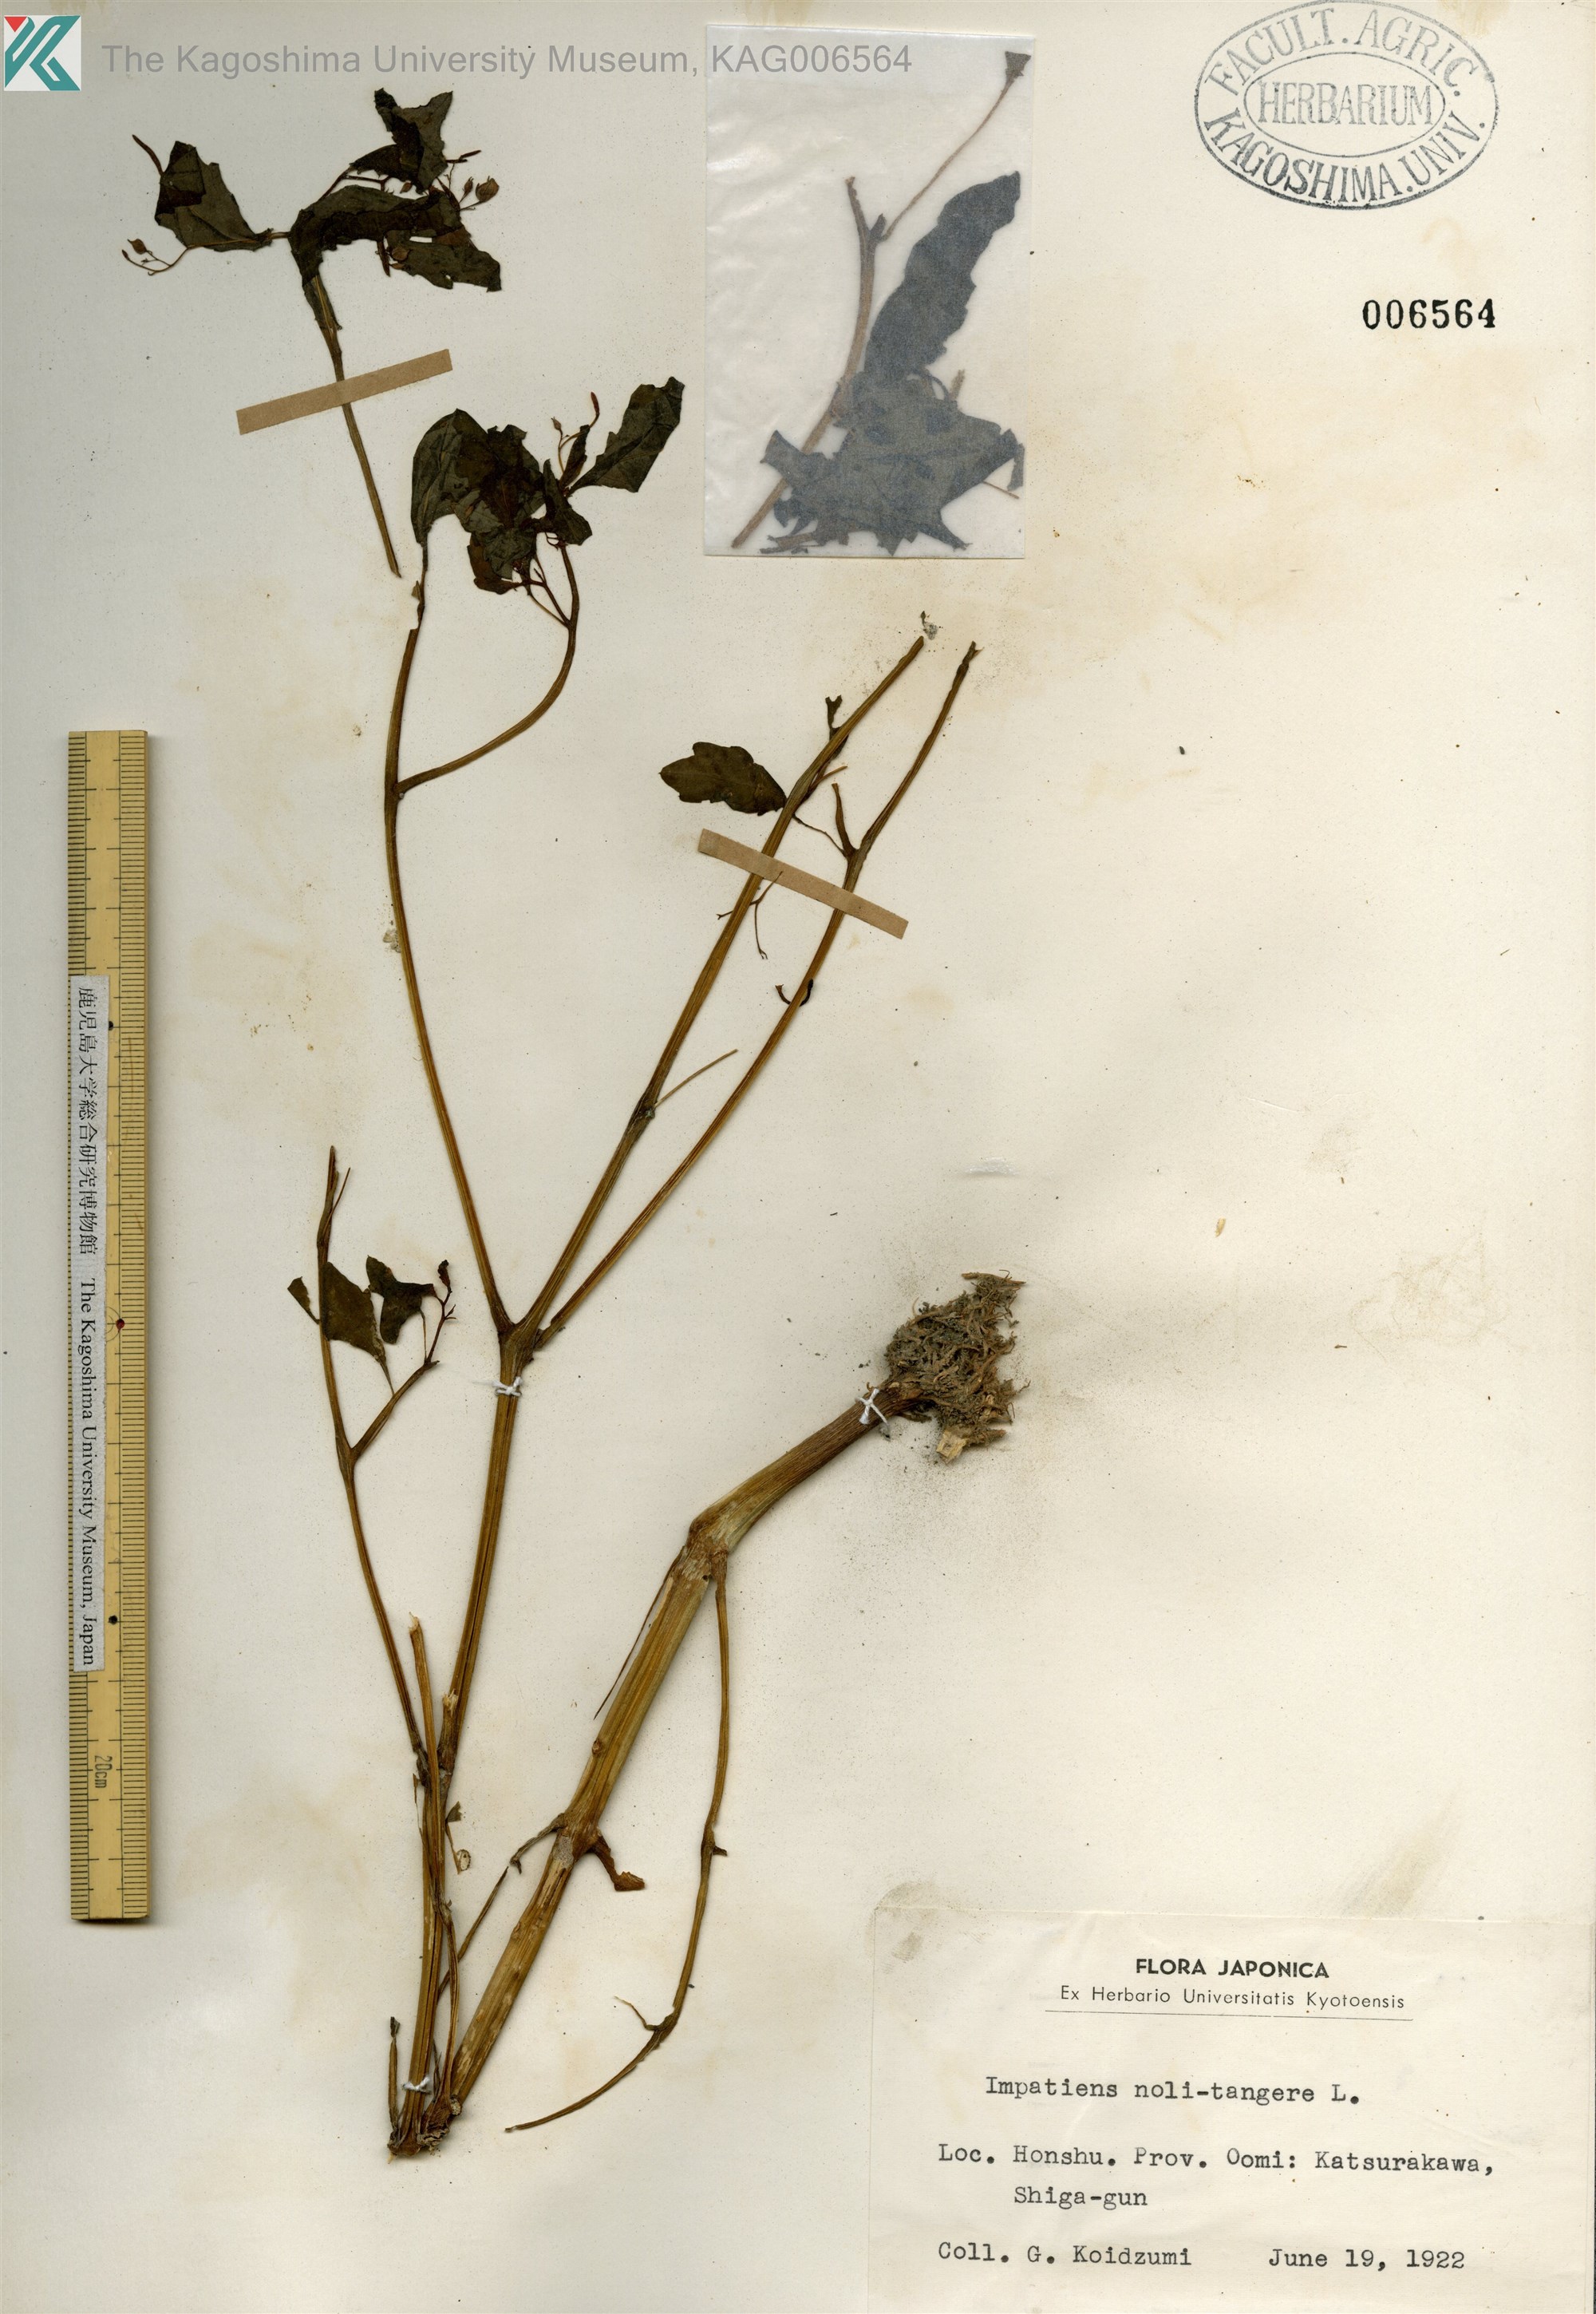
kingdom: Plantae
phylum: Tracheophyta
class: Magnoliopsida
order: Ericales
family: Balsaminaceae
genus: Impatiens
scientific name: Impatiens noli-tangere
